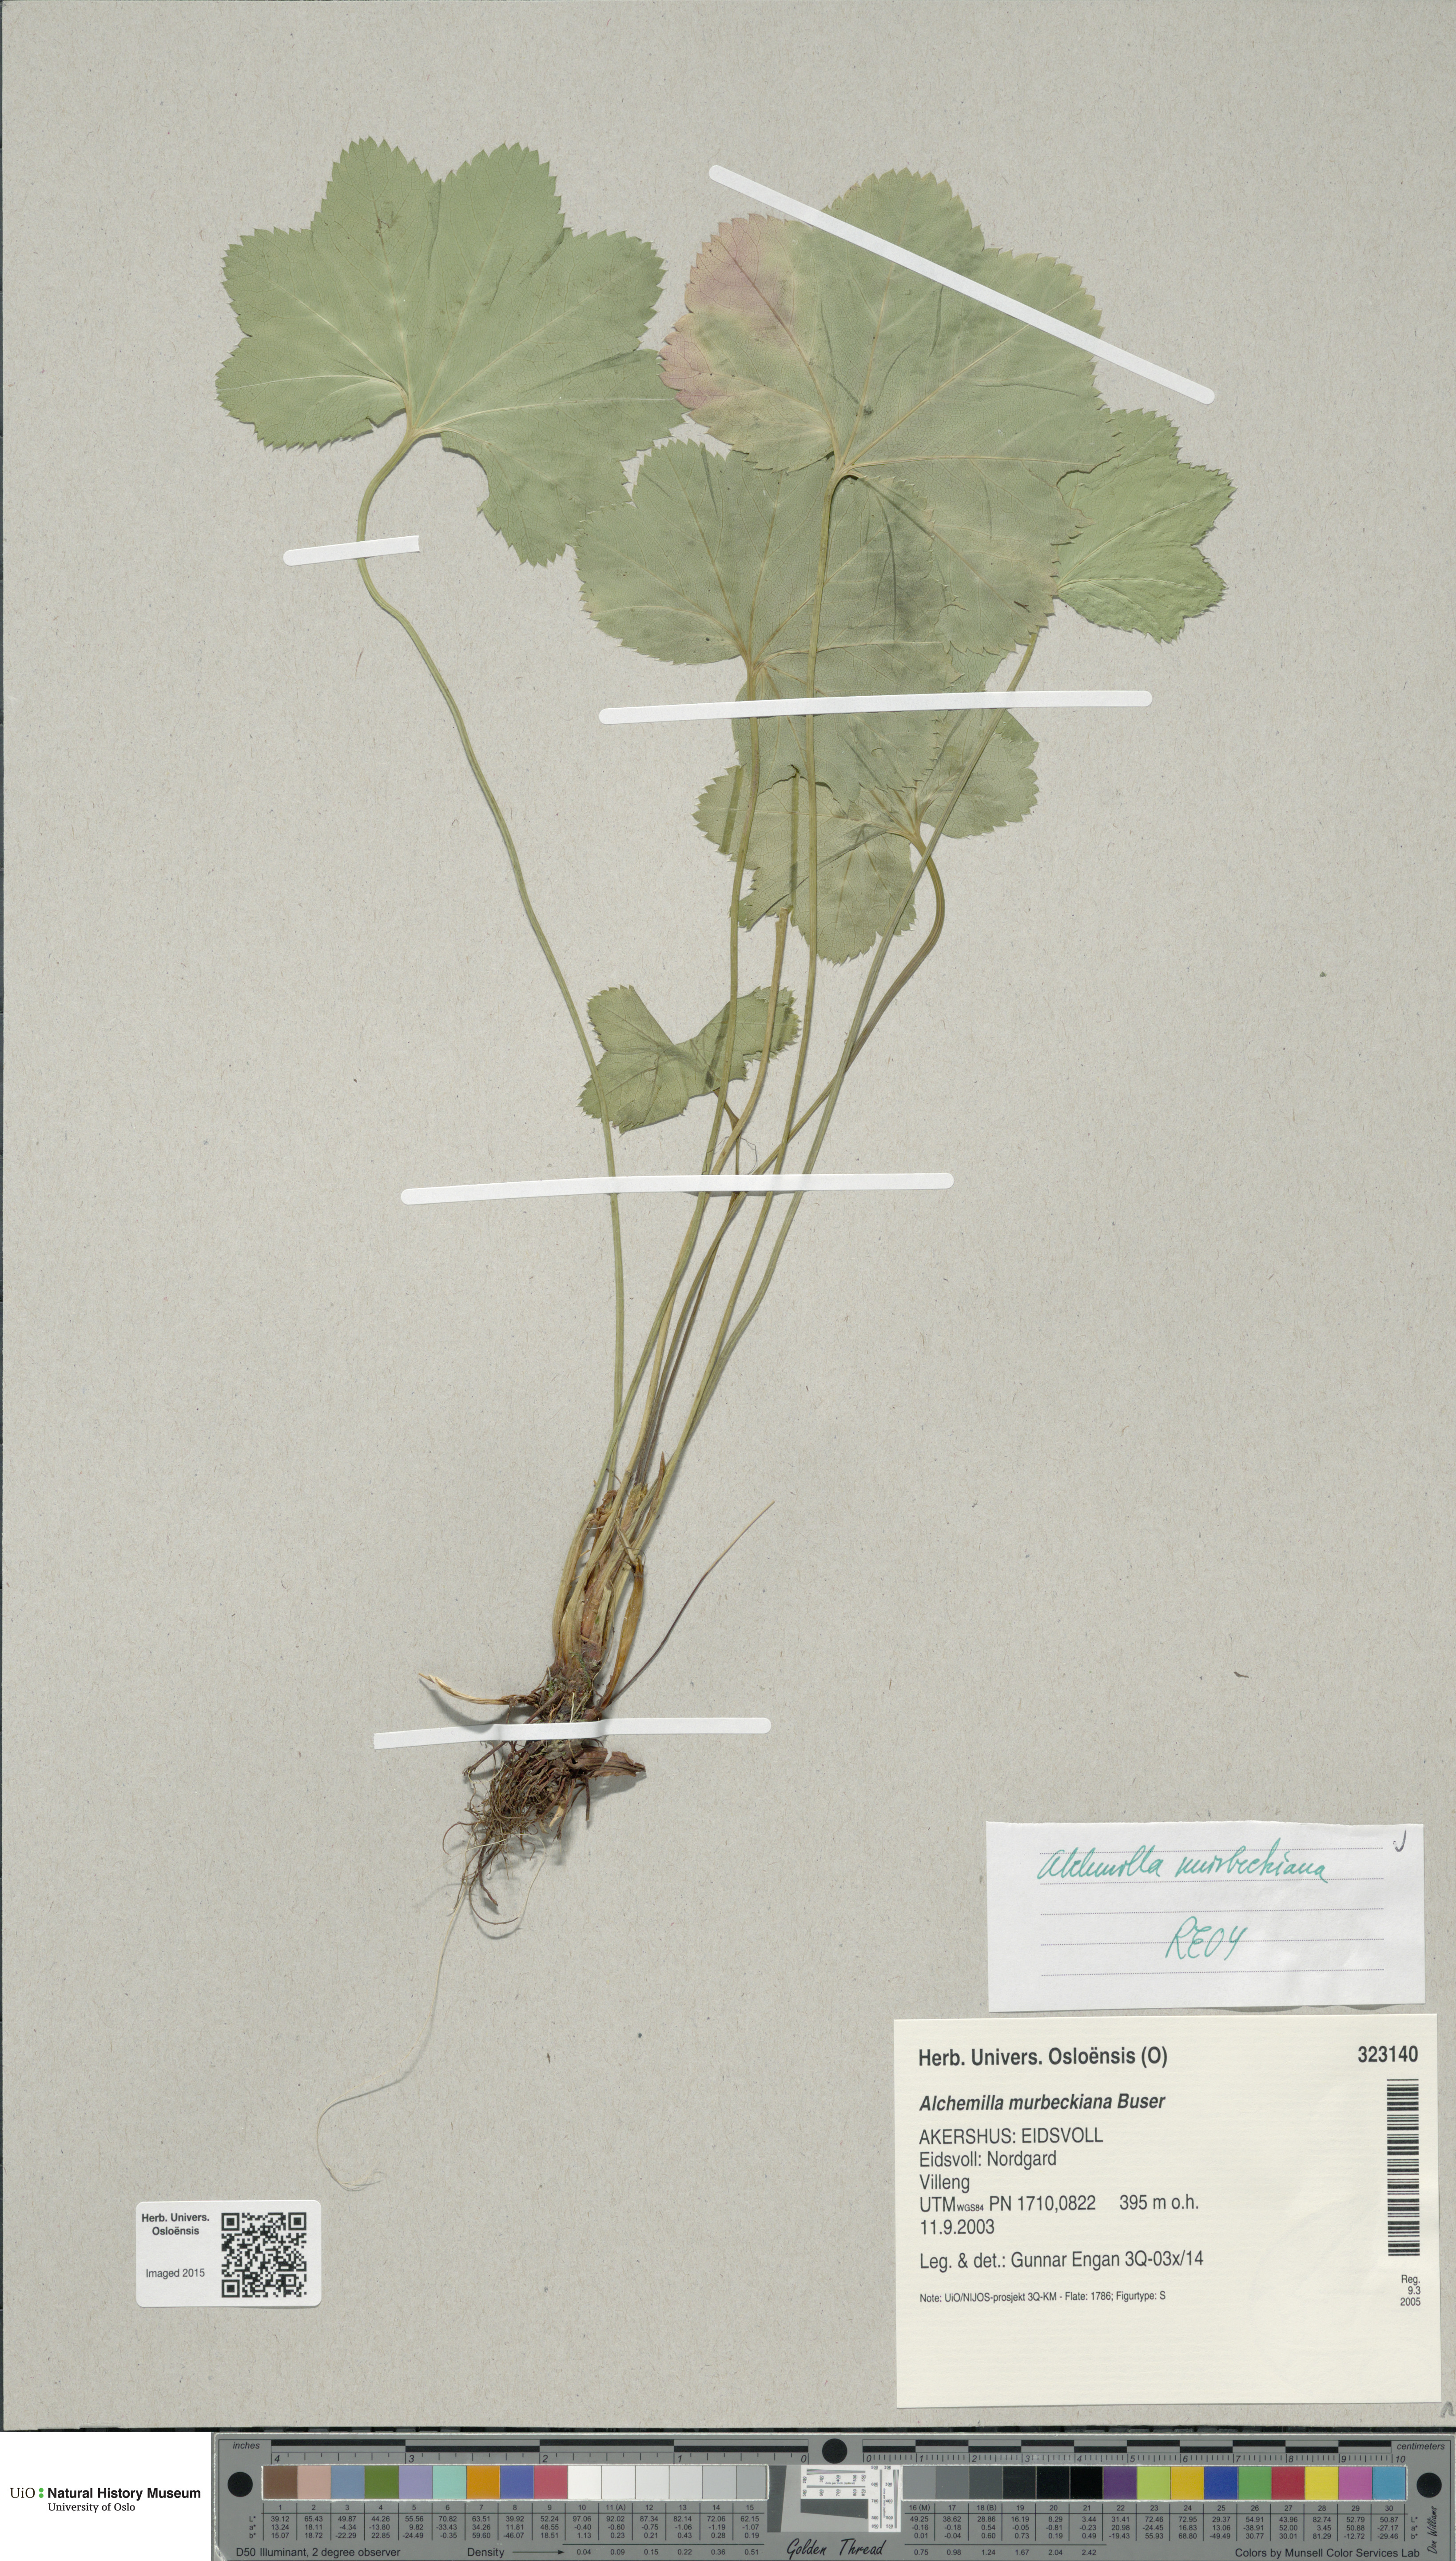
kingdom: Plantae
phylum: Tracheophyta
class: Magnoliopsida
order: Rosales
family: Rosaceae
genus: Alchemilla
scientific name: Alchemilla murbeckiana
